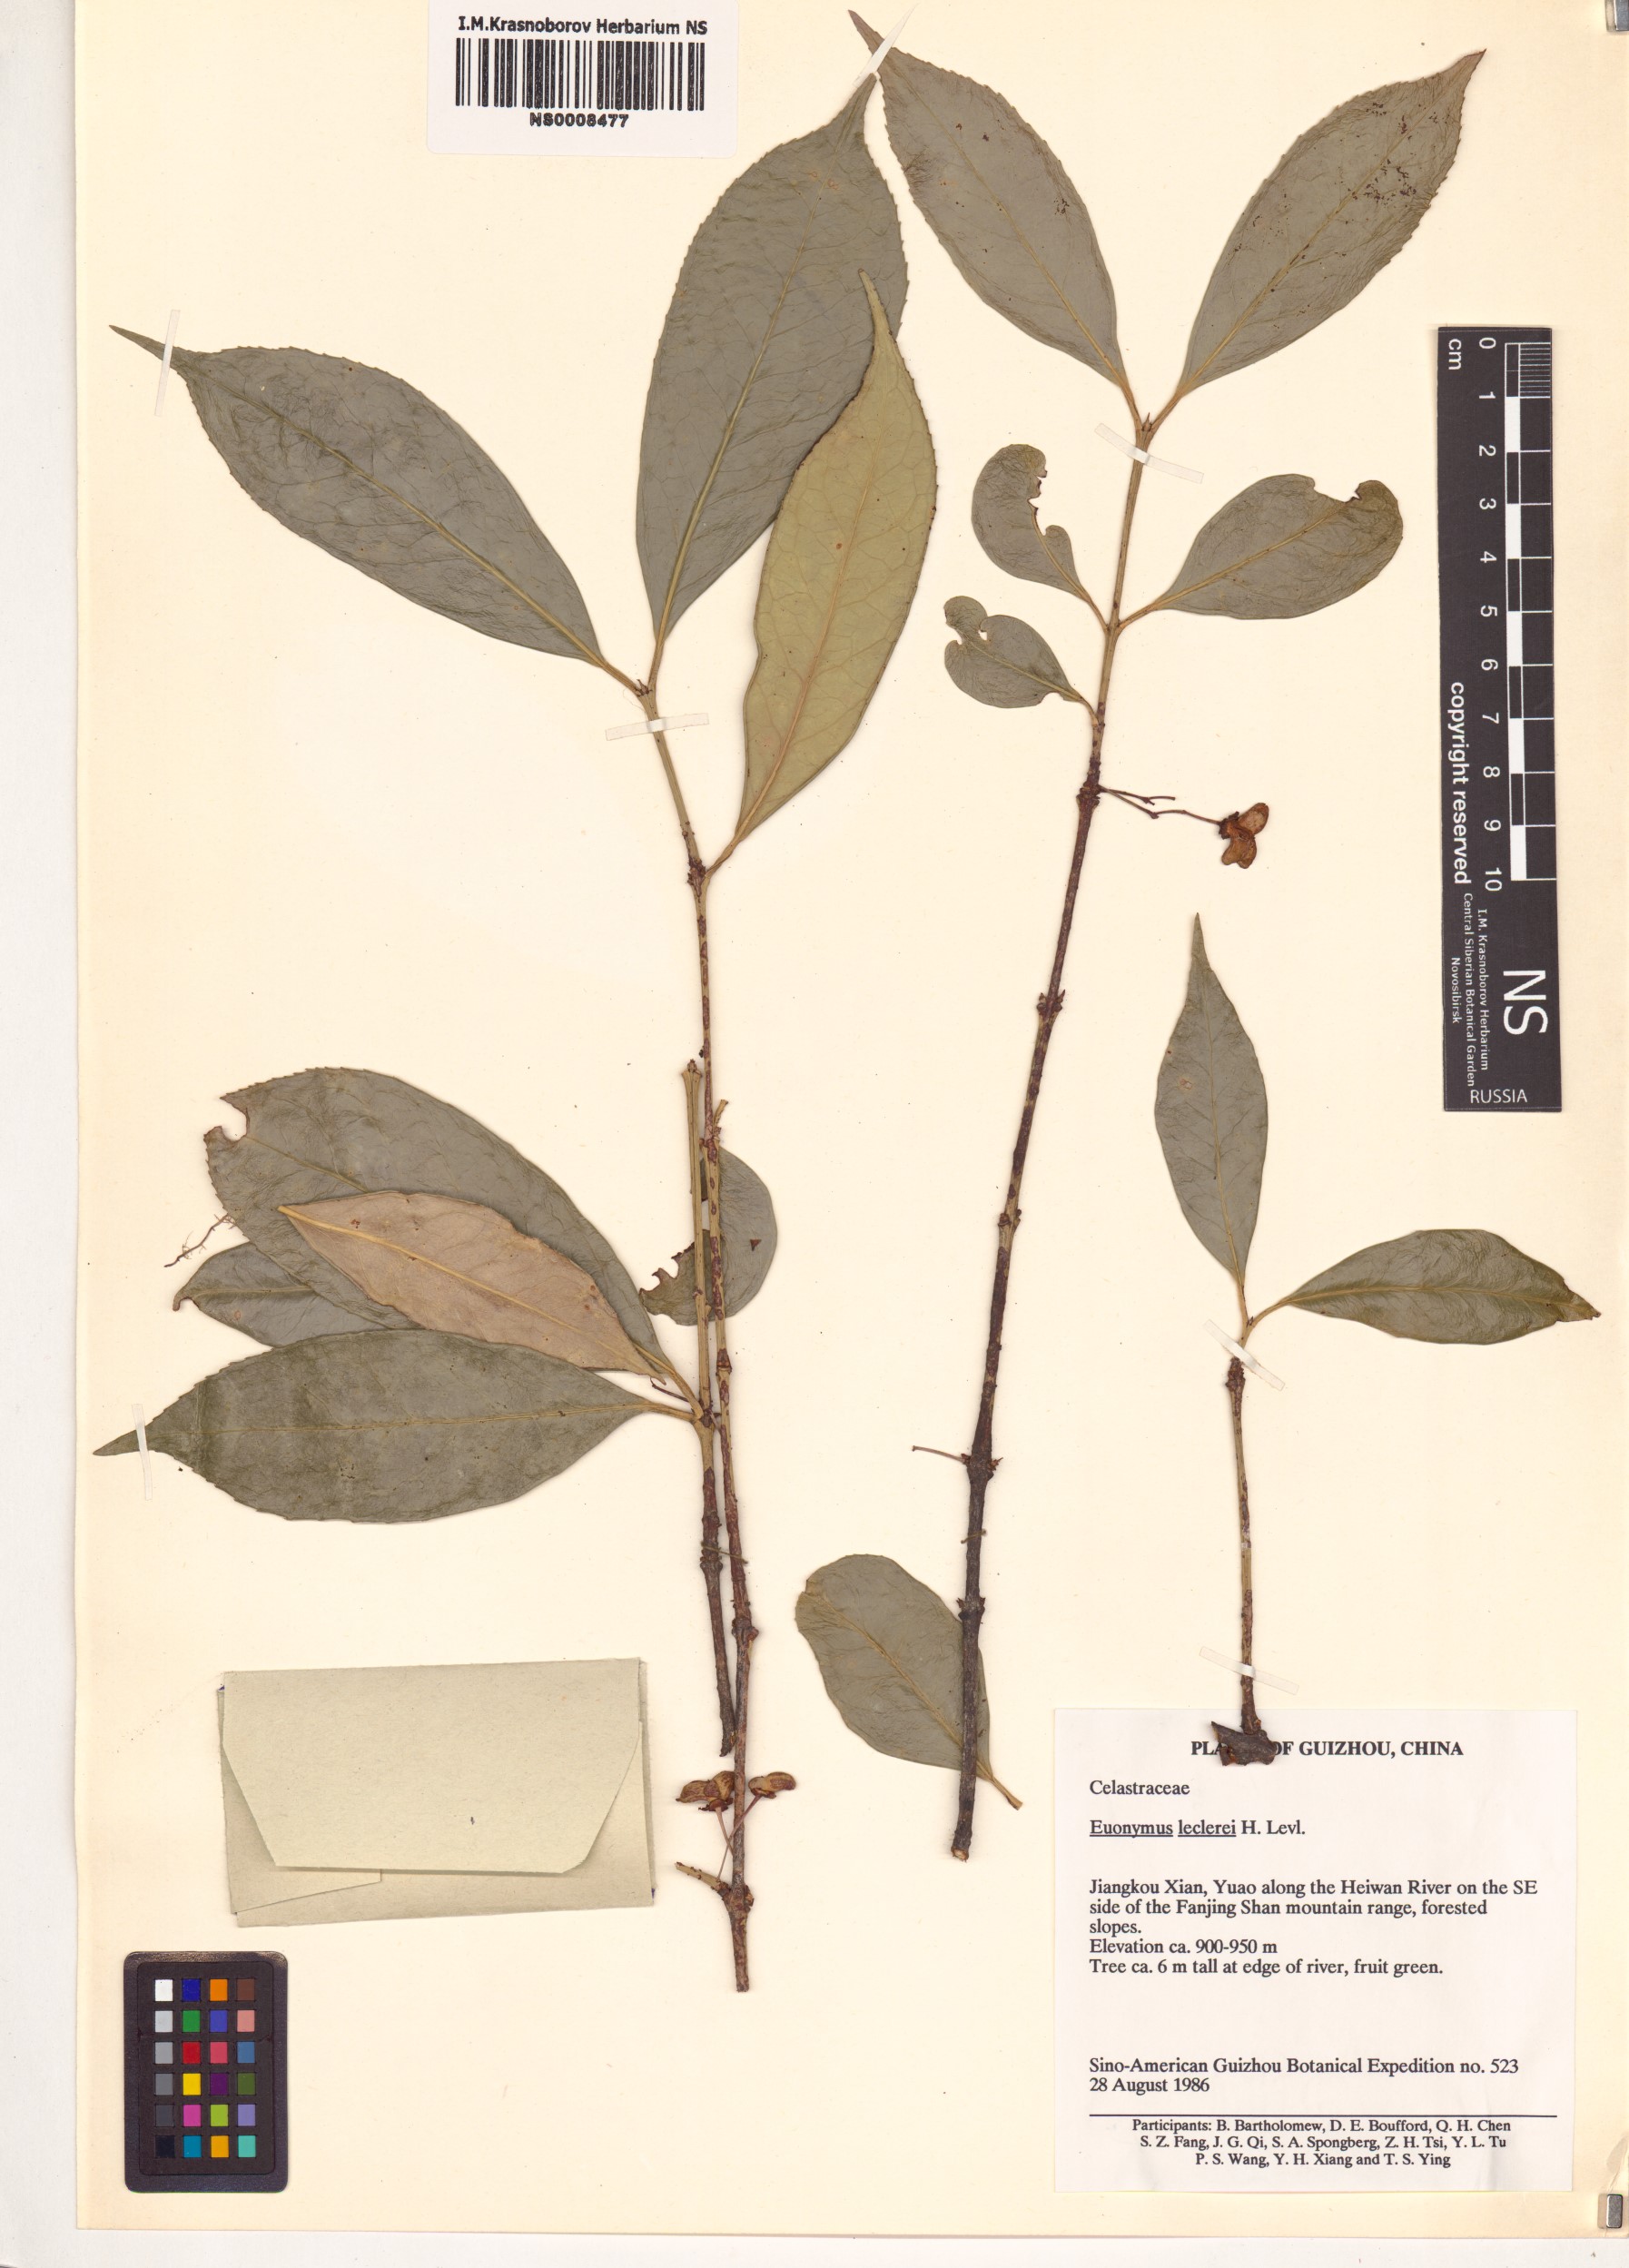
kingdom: Plantae
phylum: Tracheophyta
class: Magnoliopsida
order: Celastrales
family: Celastraceae
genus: Euonymus
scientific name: Euonymus dielsianus
